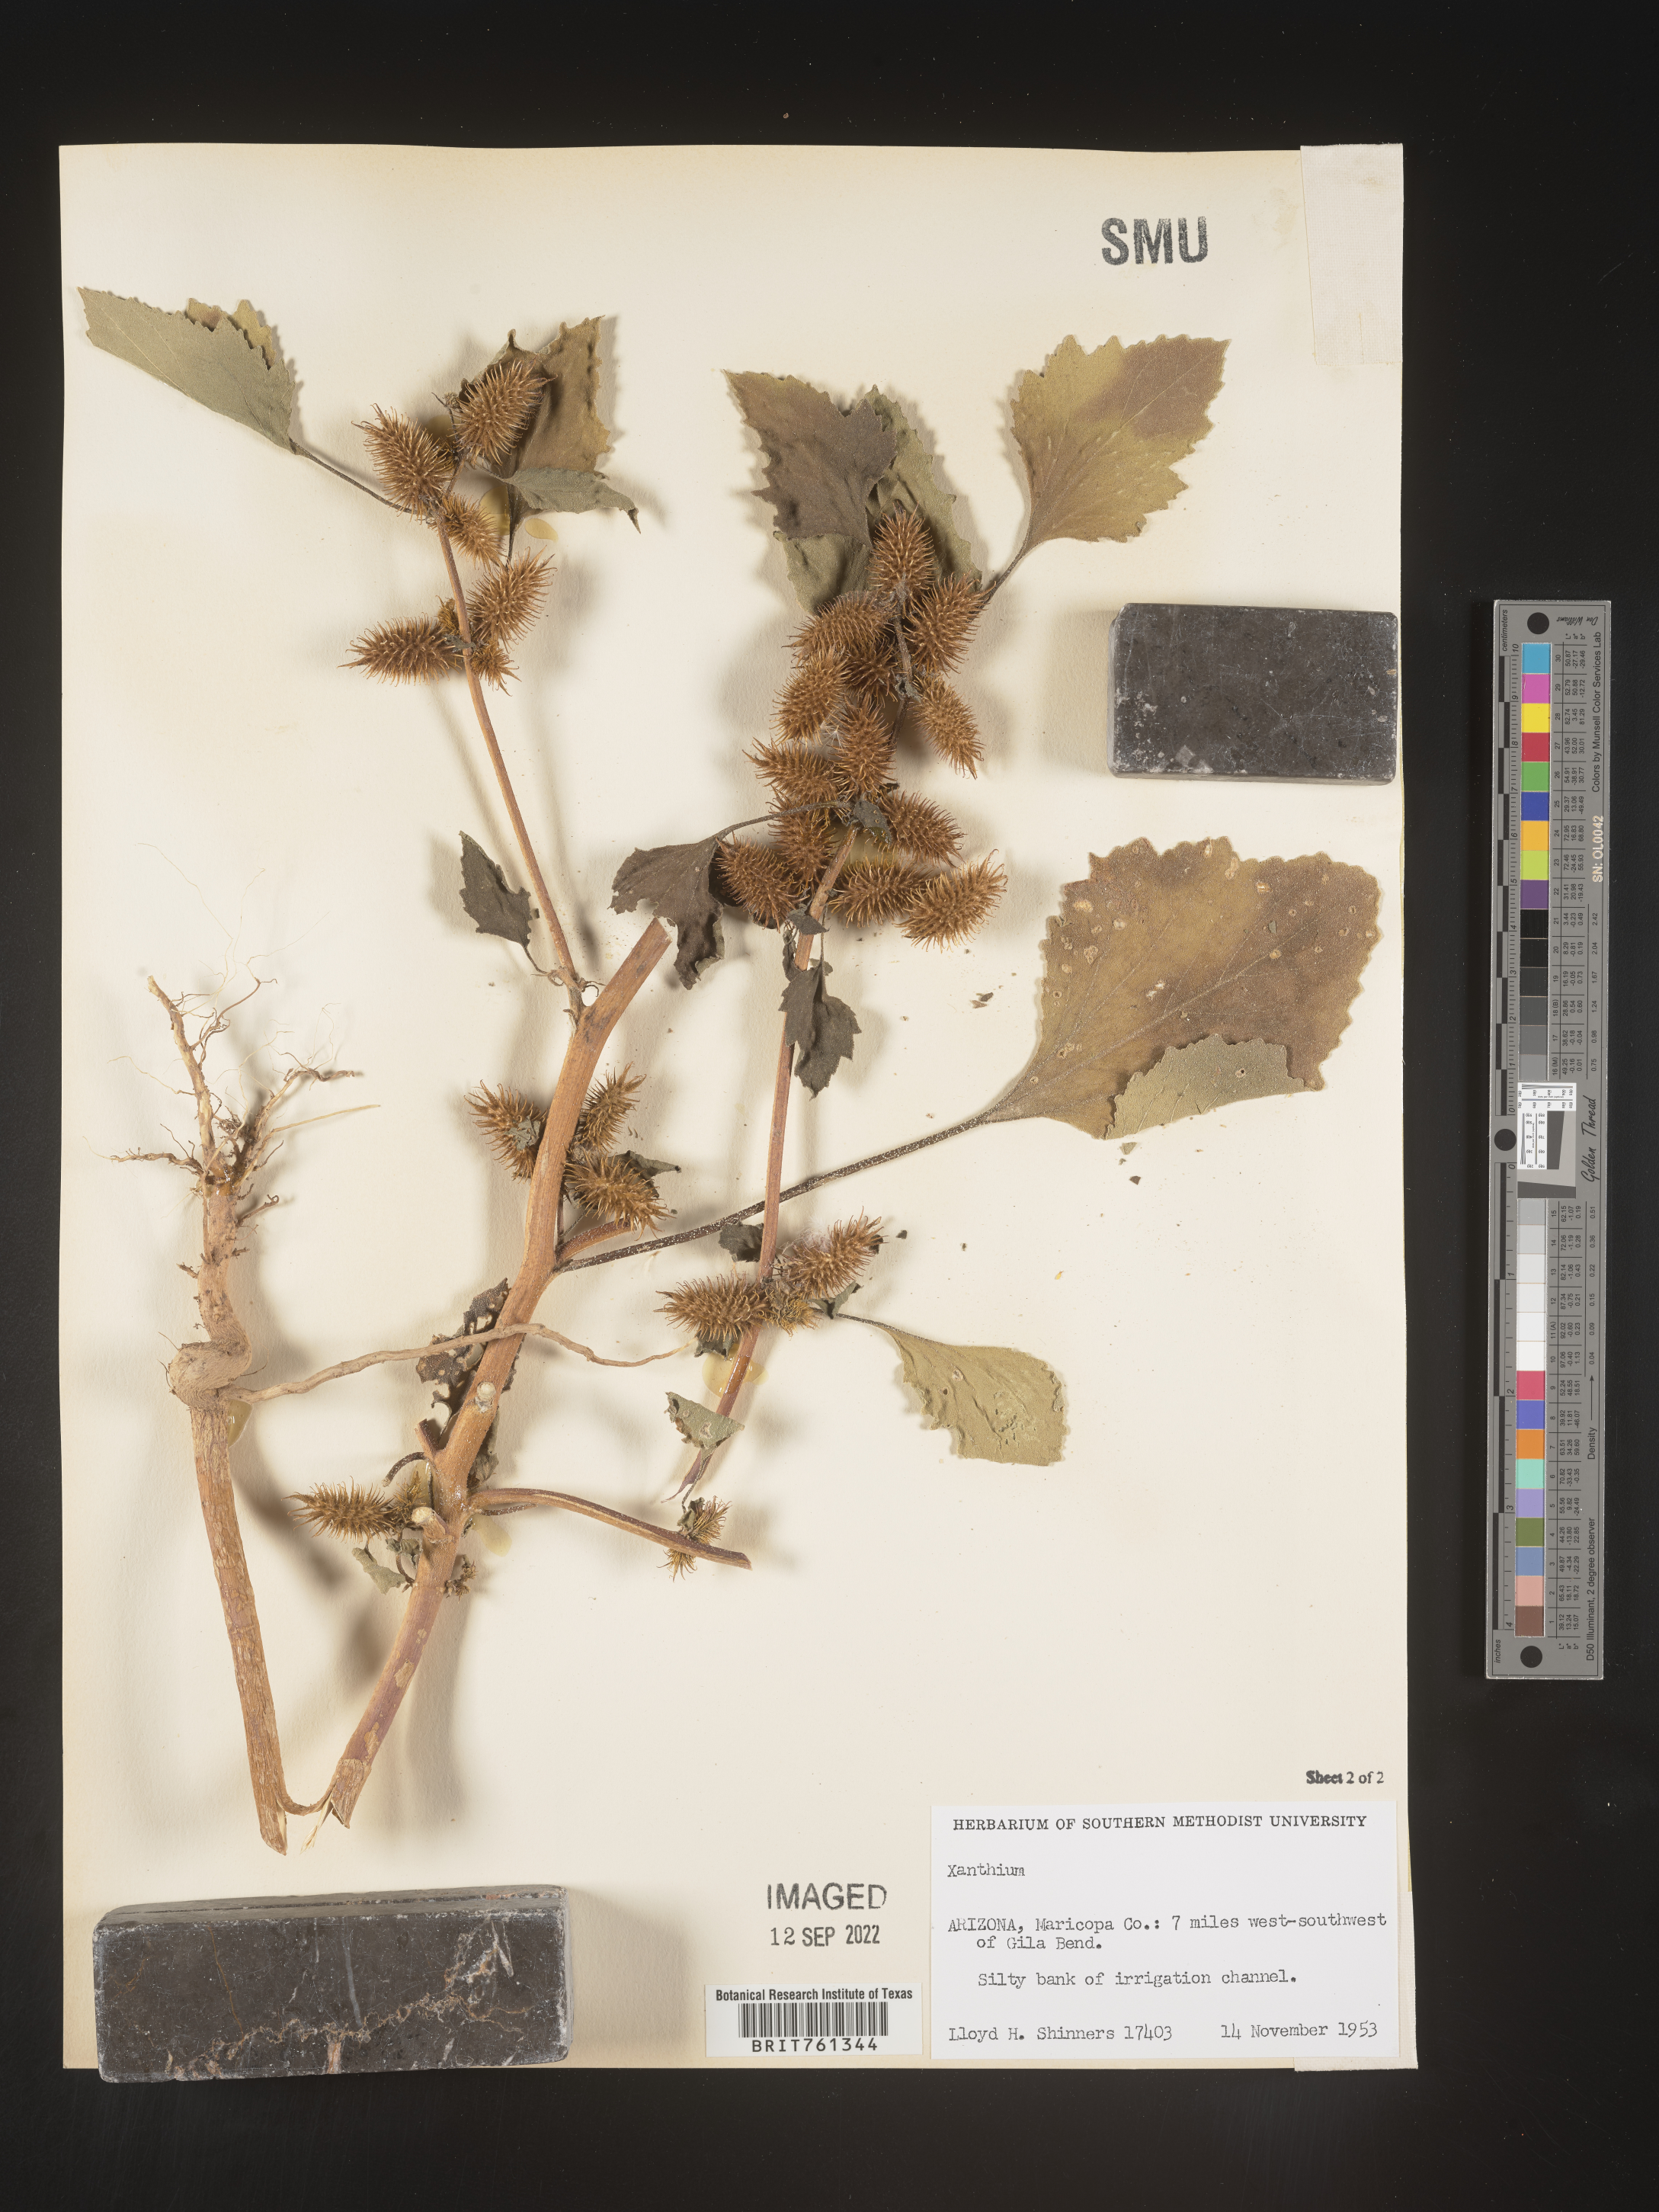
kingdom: Plantae
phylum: Tracheophyta
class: Magnoliopsida
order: Asterales
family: Asteraceae
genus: Xanthium
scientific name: Xanthium
